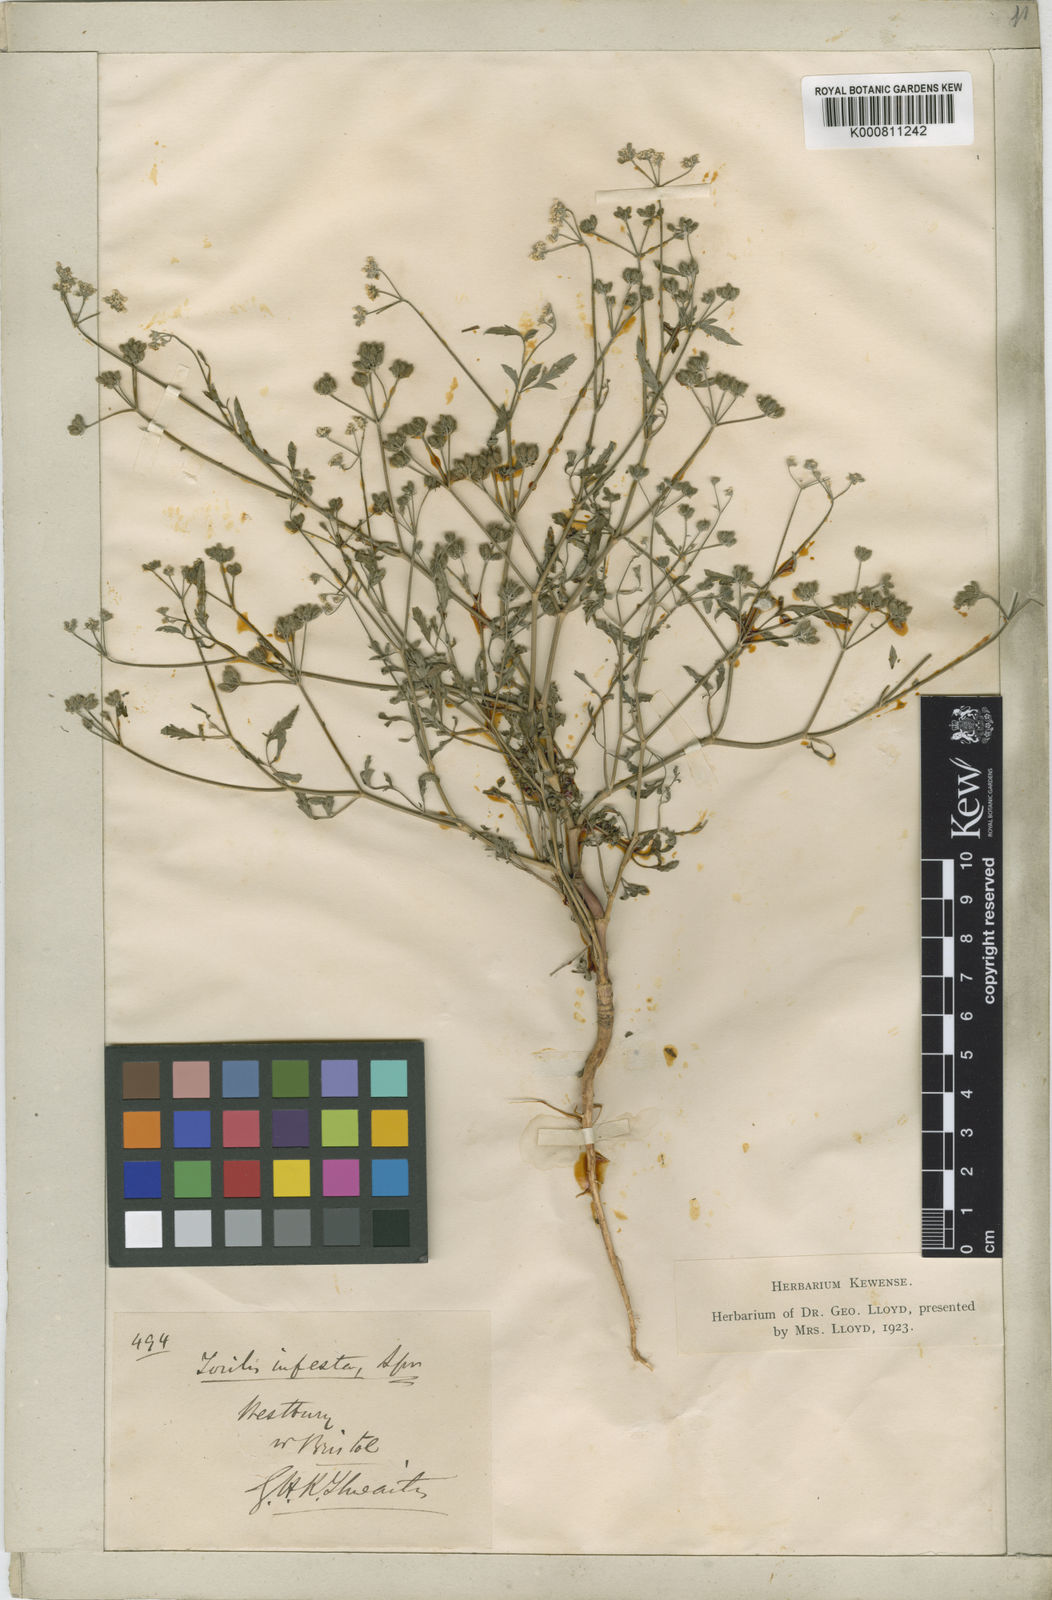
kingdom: Plantae
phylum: Tracheophyta
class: Magnoliopsida
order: Apiales
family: Apiaceae
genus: Torilis
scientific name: Torilis arvensis
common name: Spreading hedge-parsley
